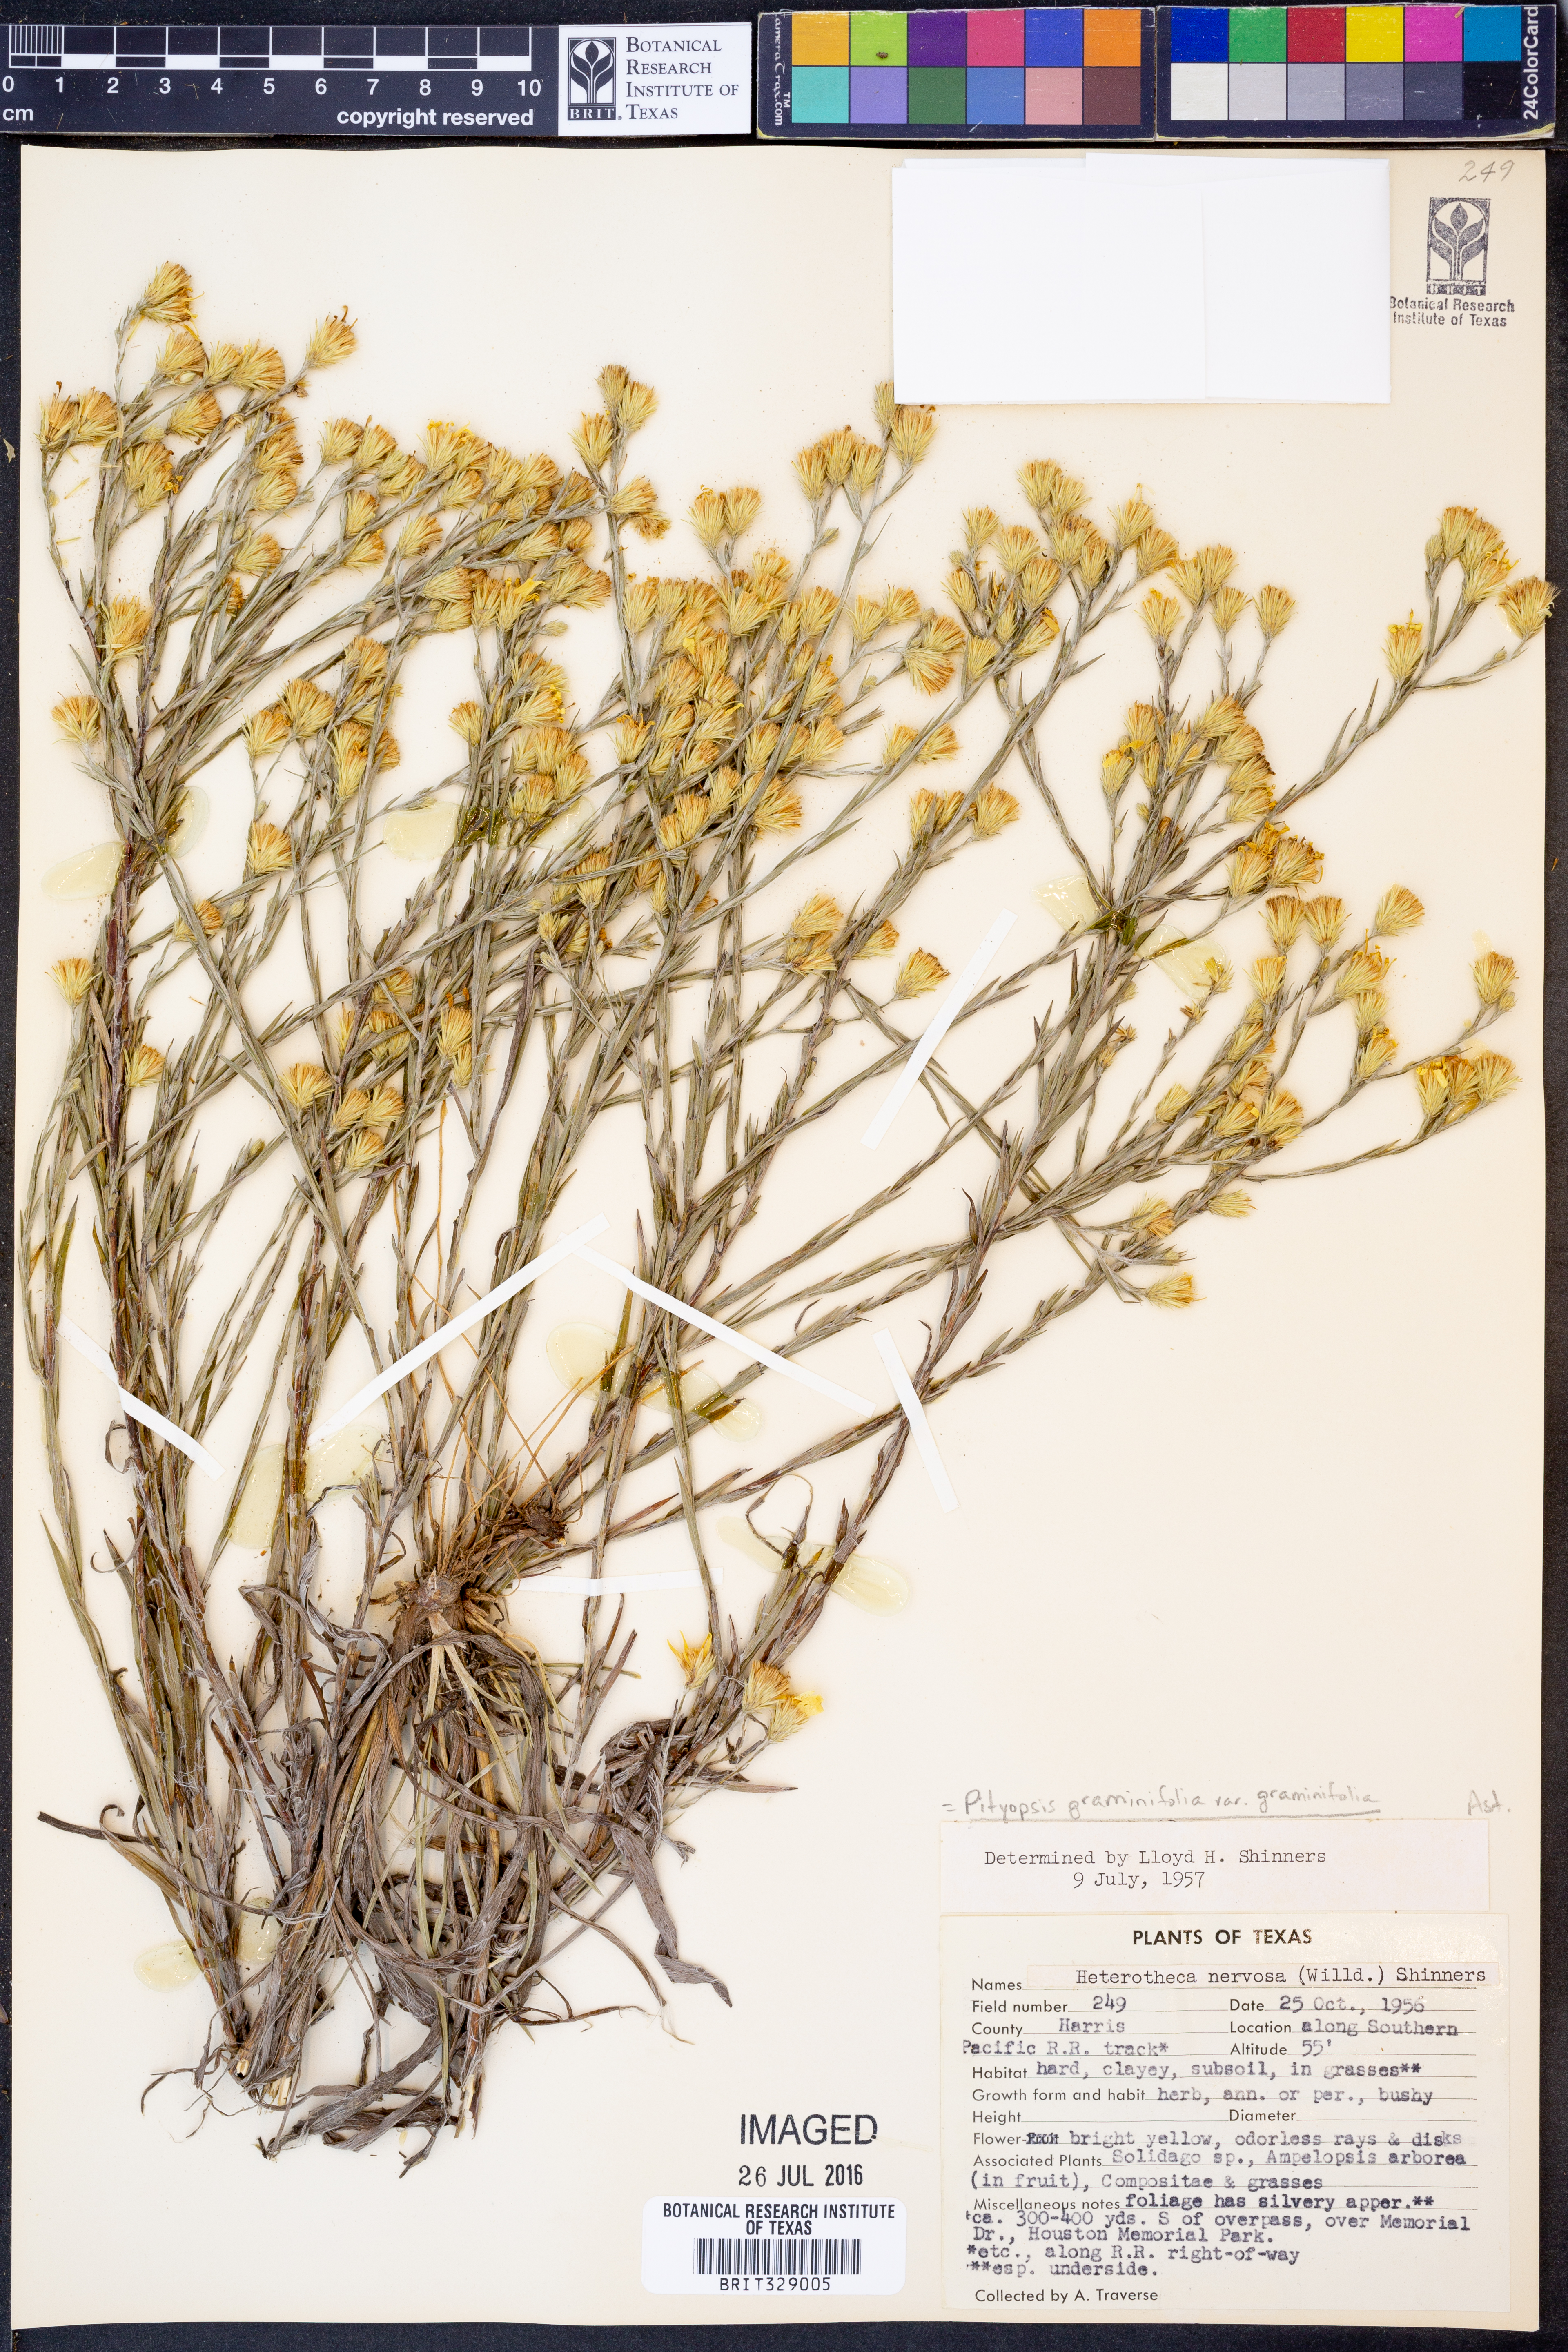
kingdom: Plantae
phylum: Tracheophyta
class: Magnoliopsida
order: Asterales
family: Asteraceae
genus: Pityopsis
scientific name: Pityopsis graminifolia
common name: Grass-leaf golden-aster
